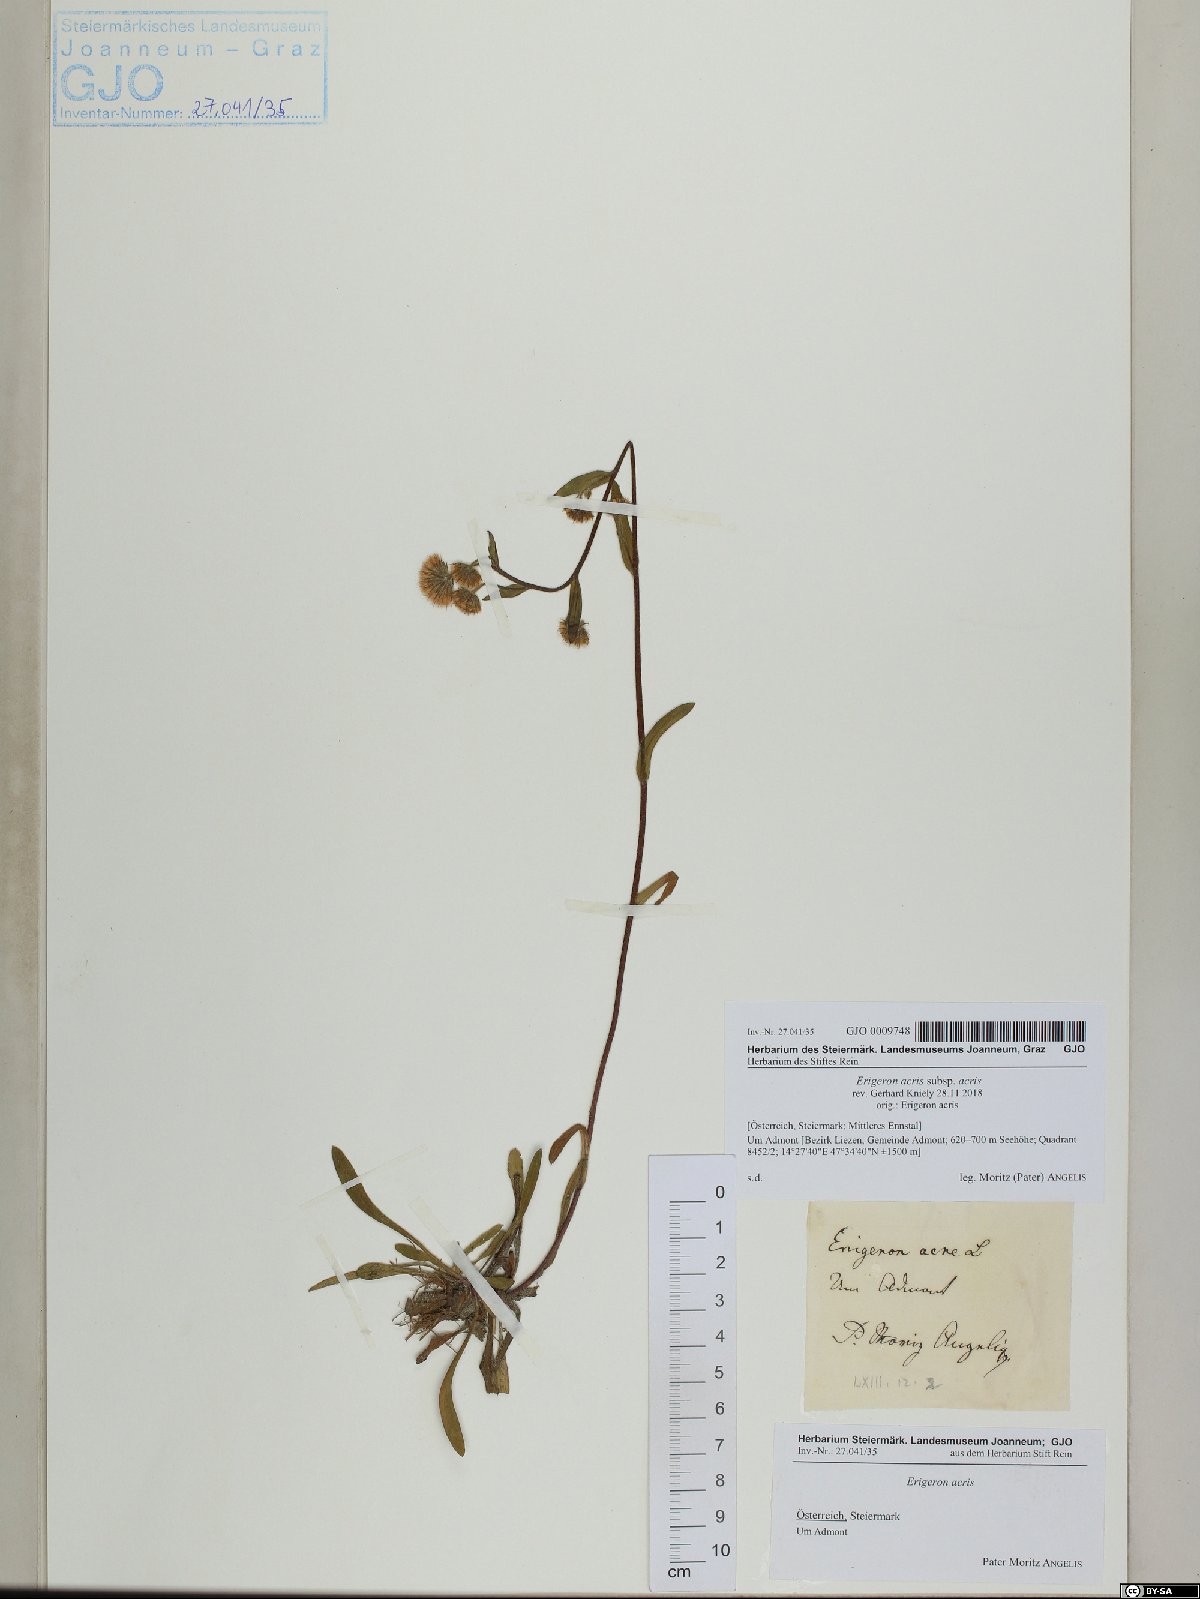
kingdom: Plantae
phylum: Tracheophyta
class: Magnoliopsida
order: Asterales
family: Asteraceae
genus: Erigeron
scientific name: Erigeron acris
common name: Blue fleabane
